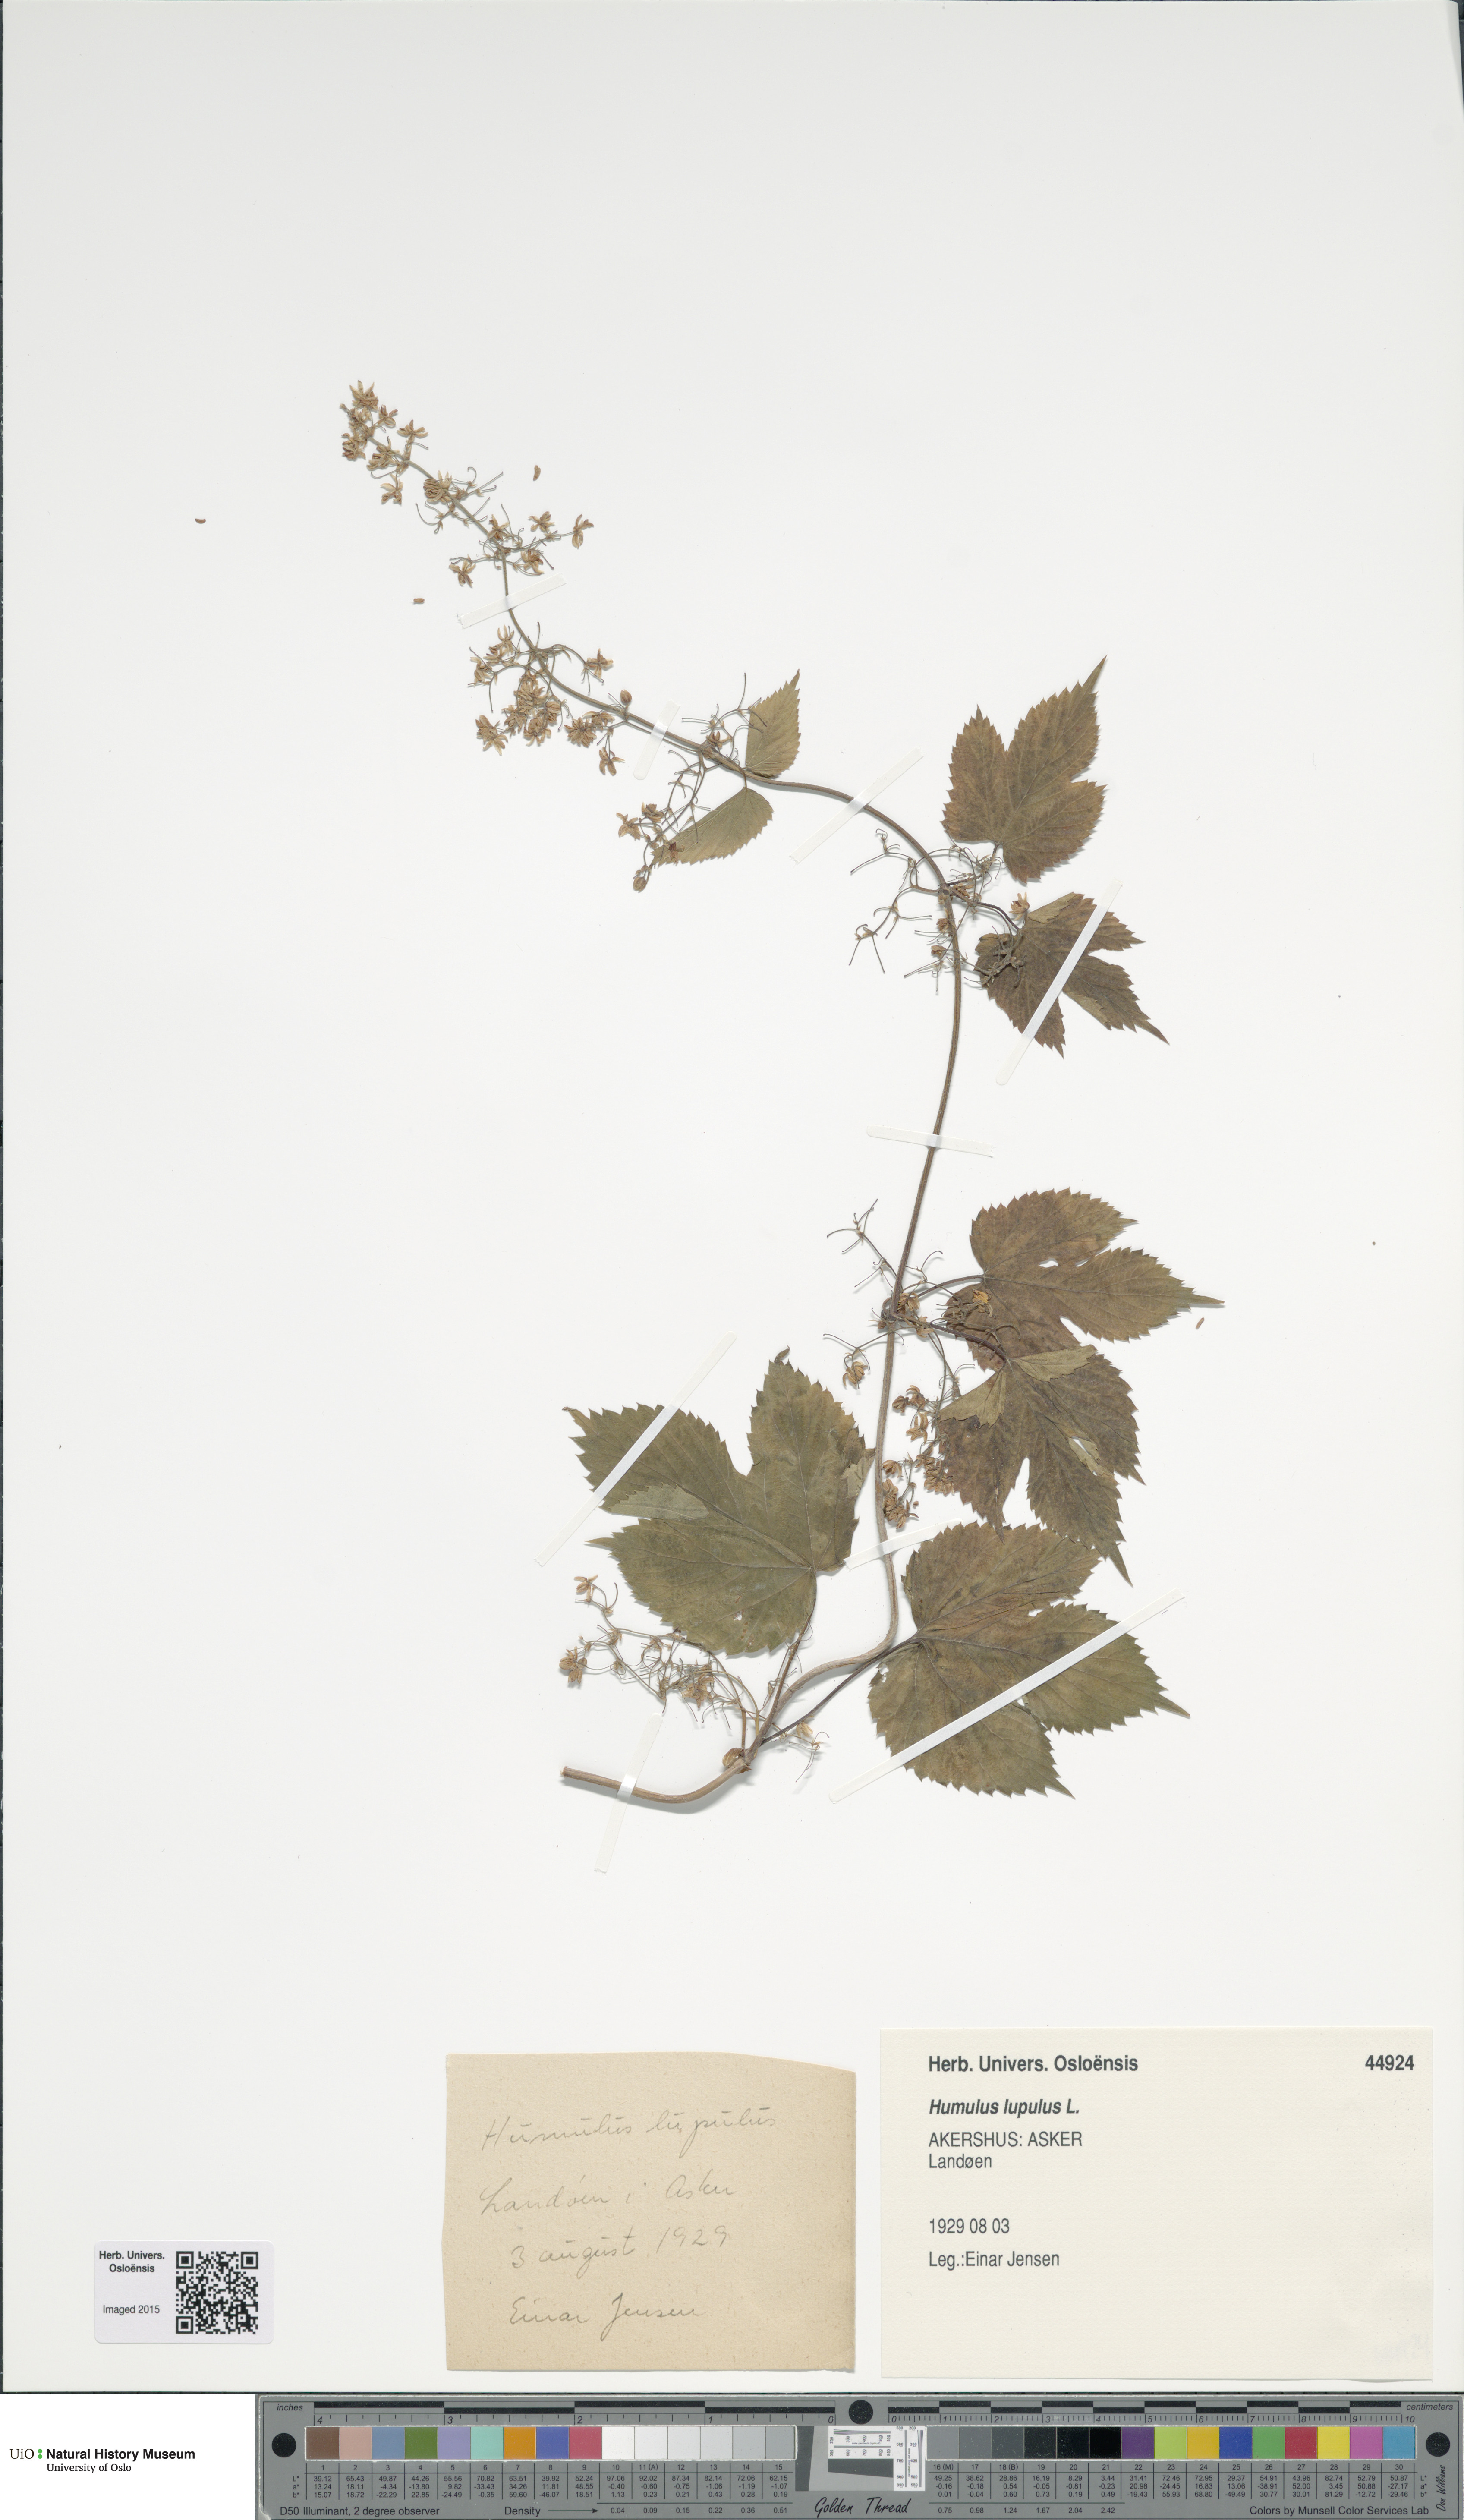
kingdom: Plantae
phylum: Tracheophyta
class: Magnoliopsida
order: Rosales
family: Cannabaceae
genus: Humulus
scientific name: Humulus lupulus
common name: Hop
